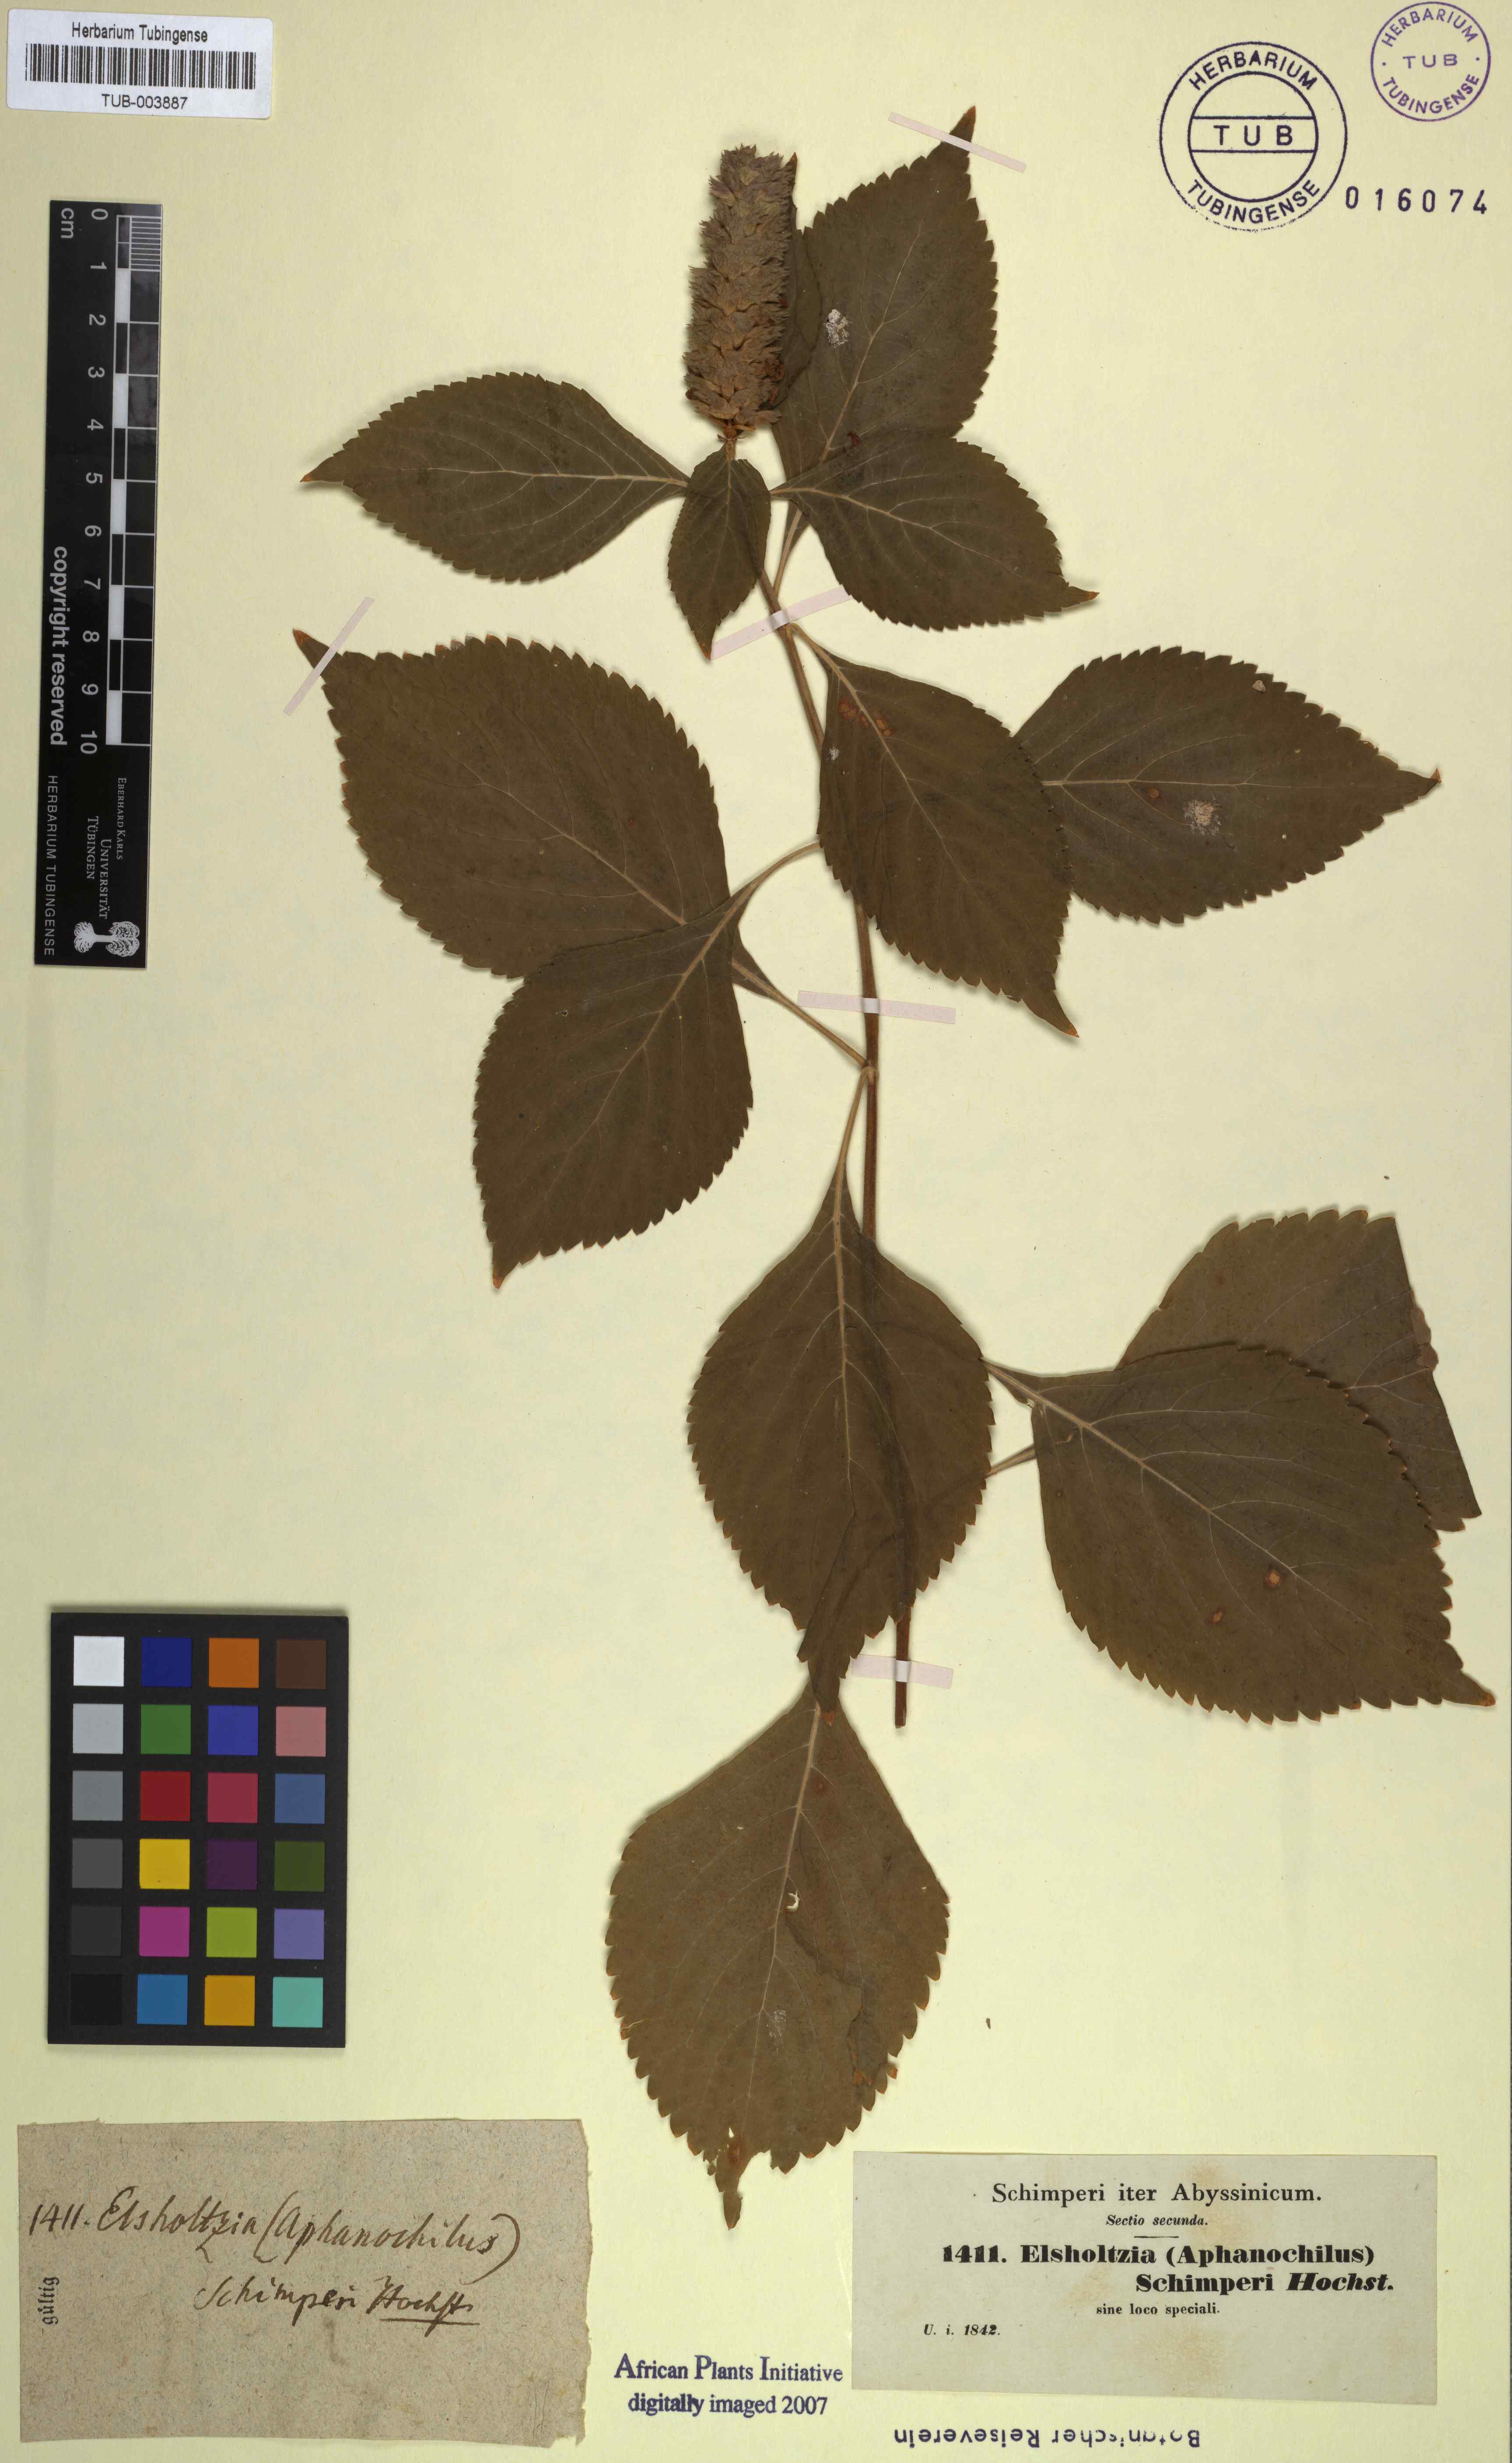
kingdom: Plantae
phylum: Tracheophyta
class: Magnoliopsida
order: Lamiales
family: Lamiaceae
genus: Achyrospermum
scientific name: Achyrospermum schimperi
